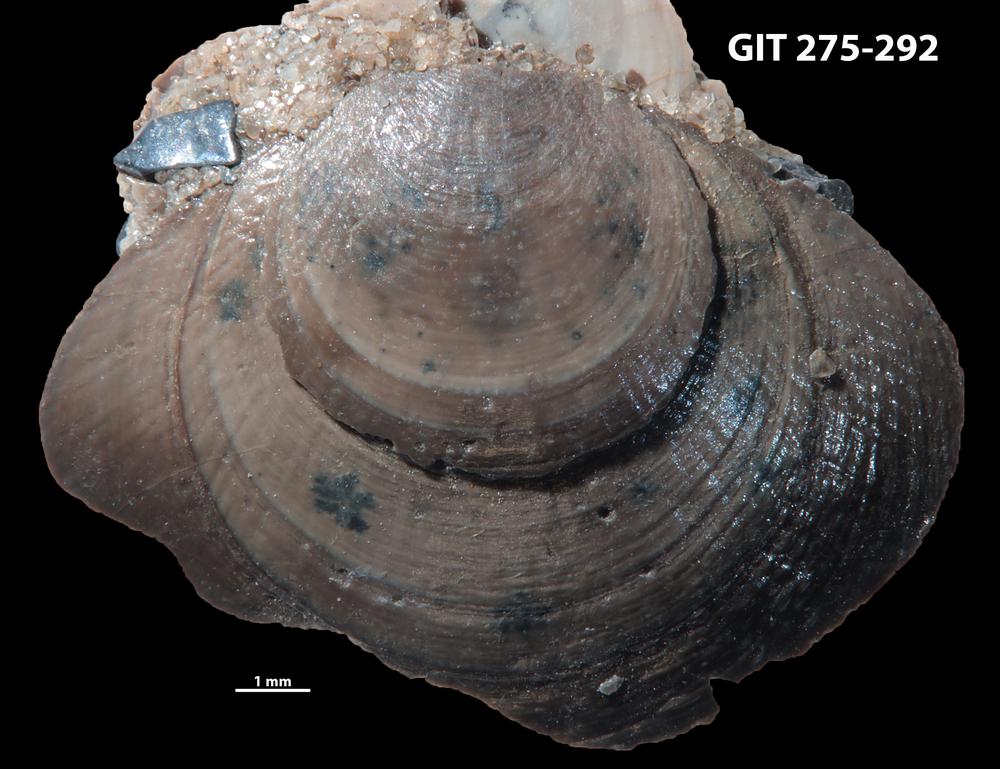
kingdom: Animalia
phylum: Brachiopoda
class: Lingulata
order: Lingulida
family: Obolidae
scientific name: Obolidae
